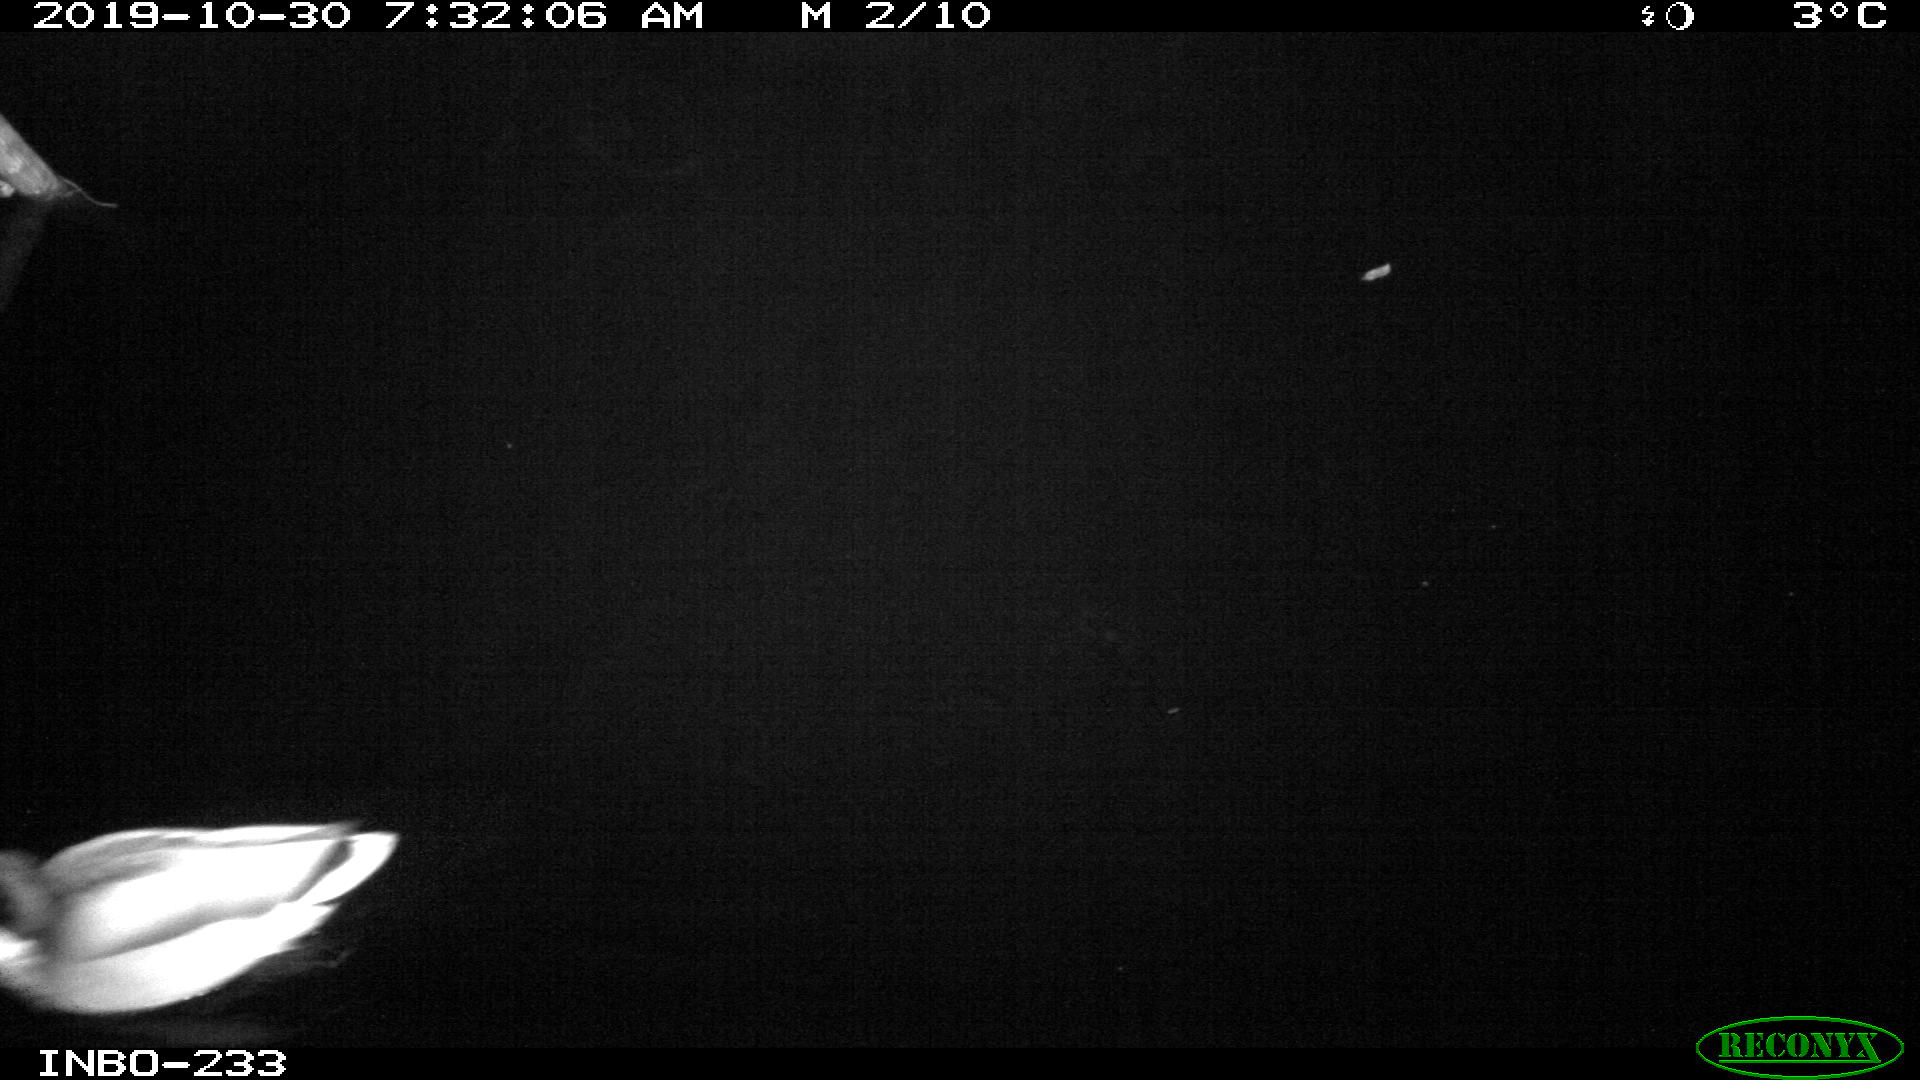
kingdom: Animalia
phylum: Chordata
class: Aves
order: Anseriformes
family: Anatidae
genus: Anas
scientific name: Anas platyrhynchos
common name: Mallard
